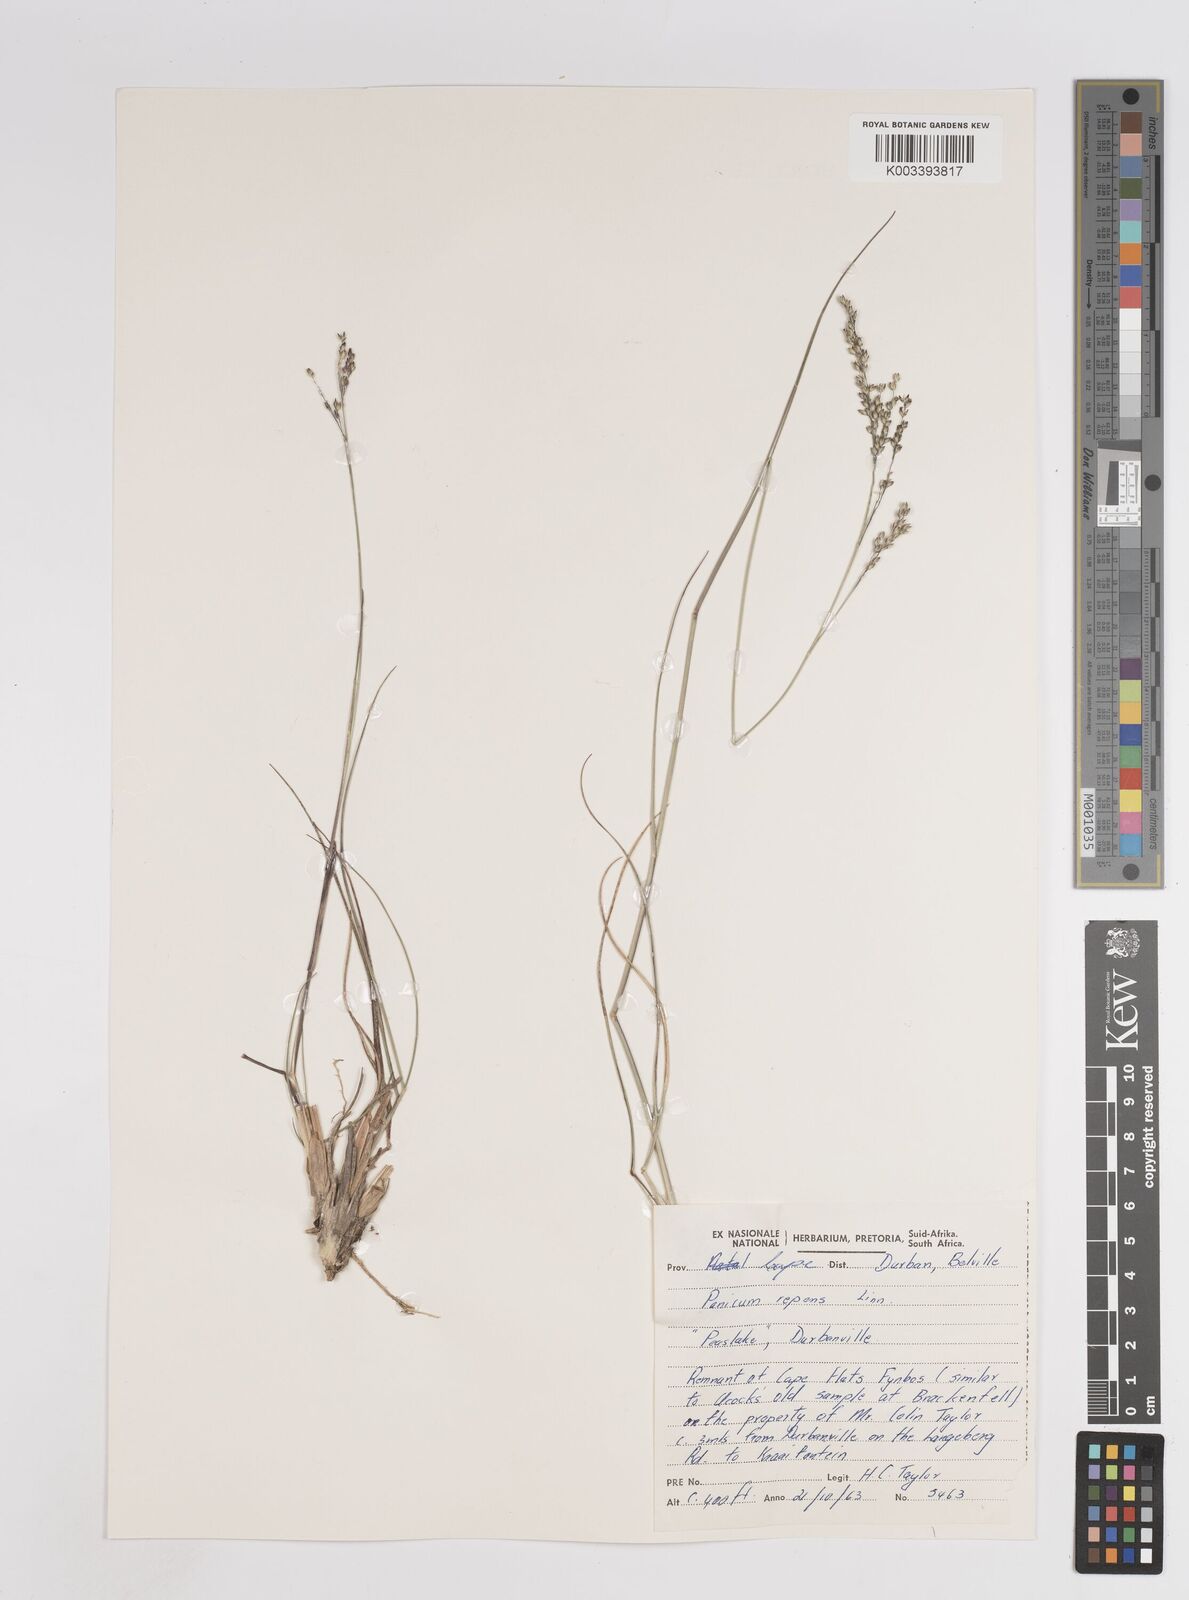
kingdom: Plantae
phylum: Tracheophyta
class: Liliopsida
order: Poales
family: Poaceae
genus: Panicum
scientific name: Panicum repens
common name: Torpedo grass
